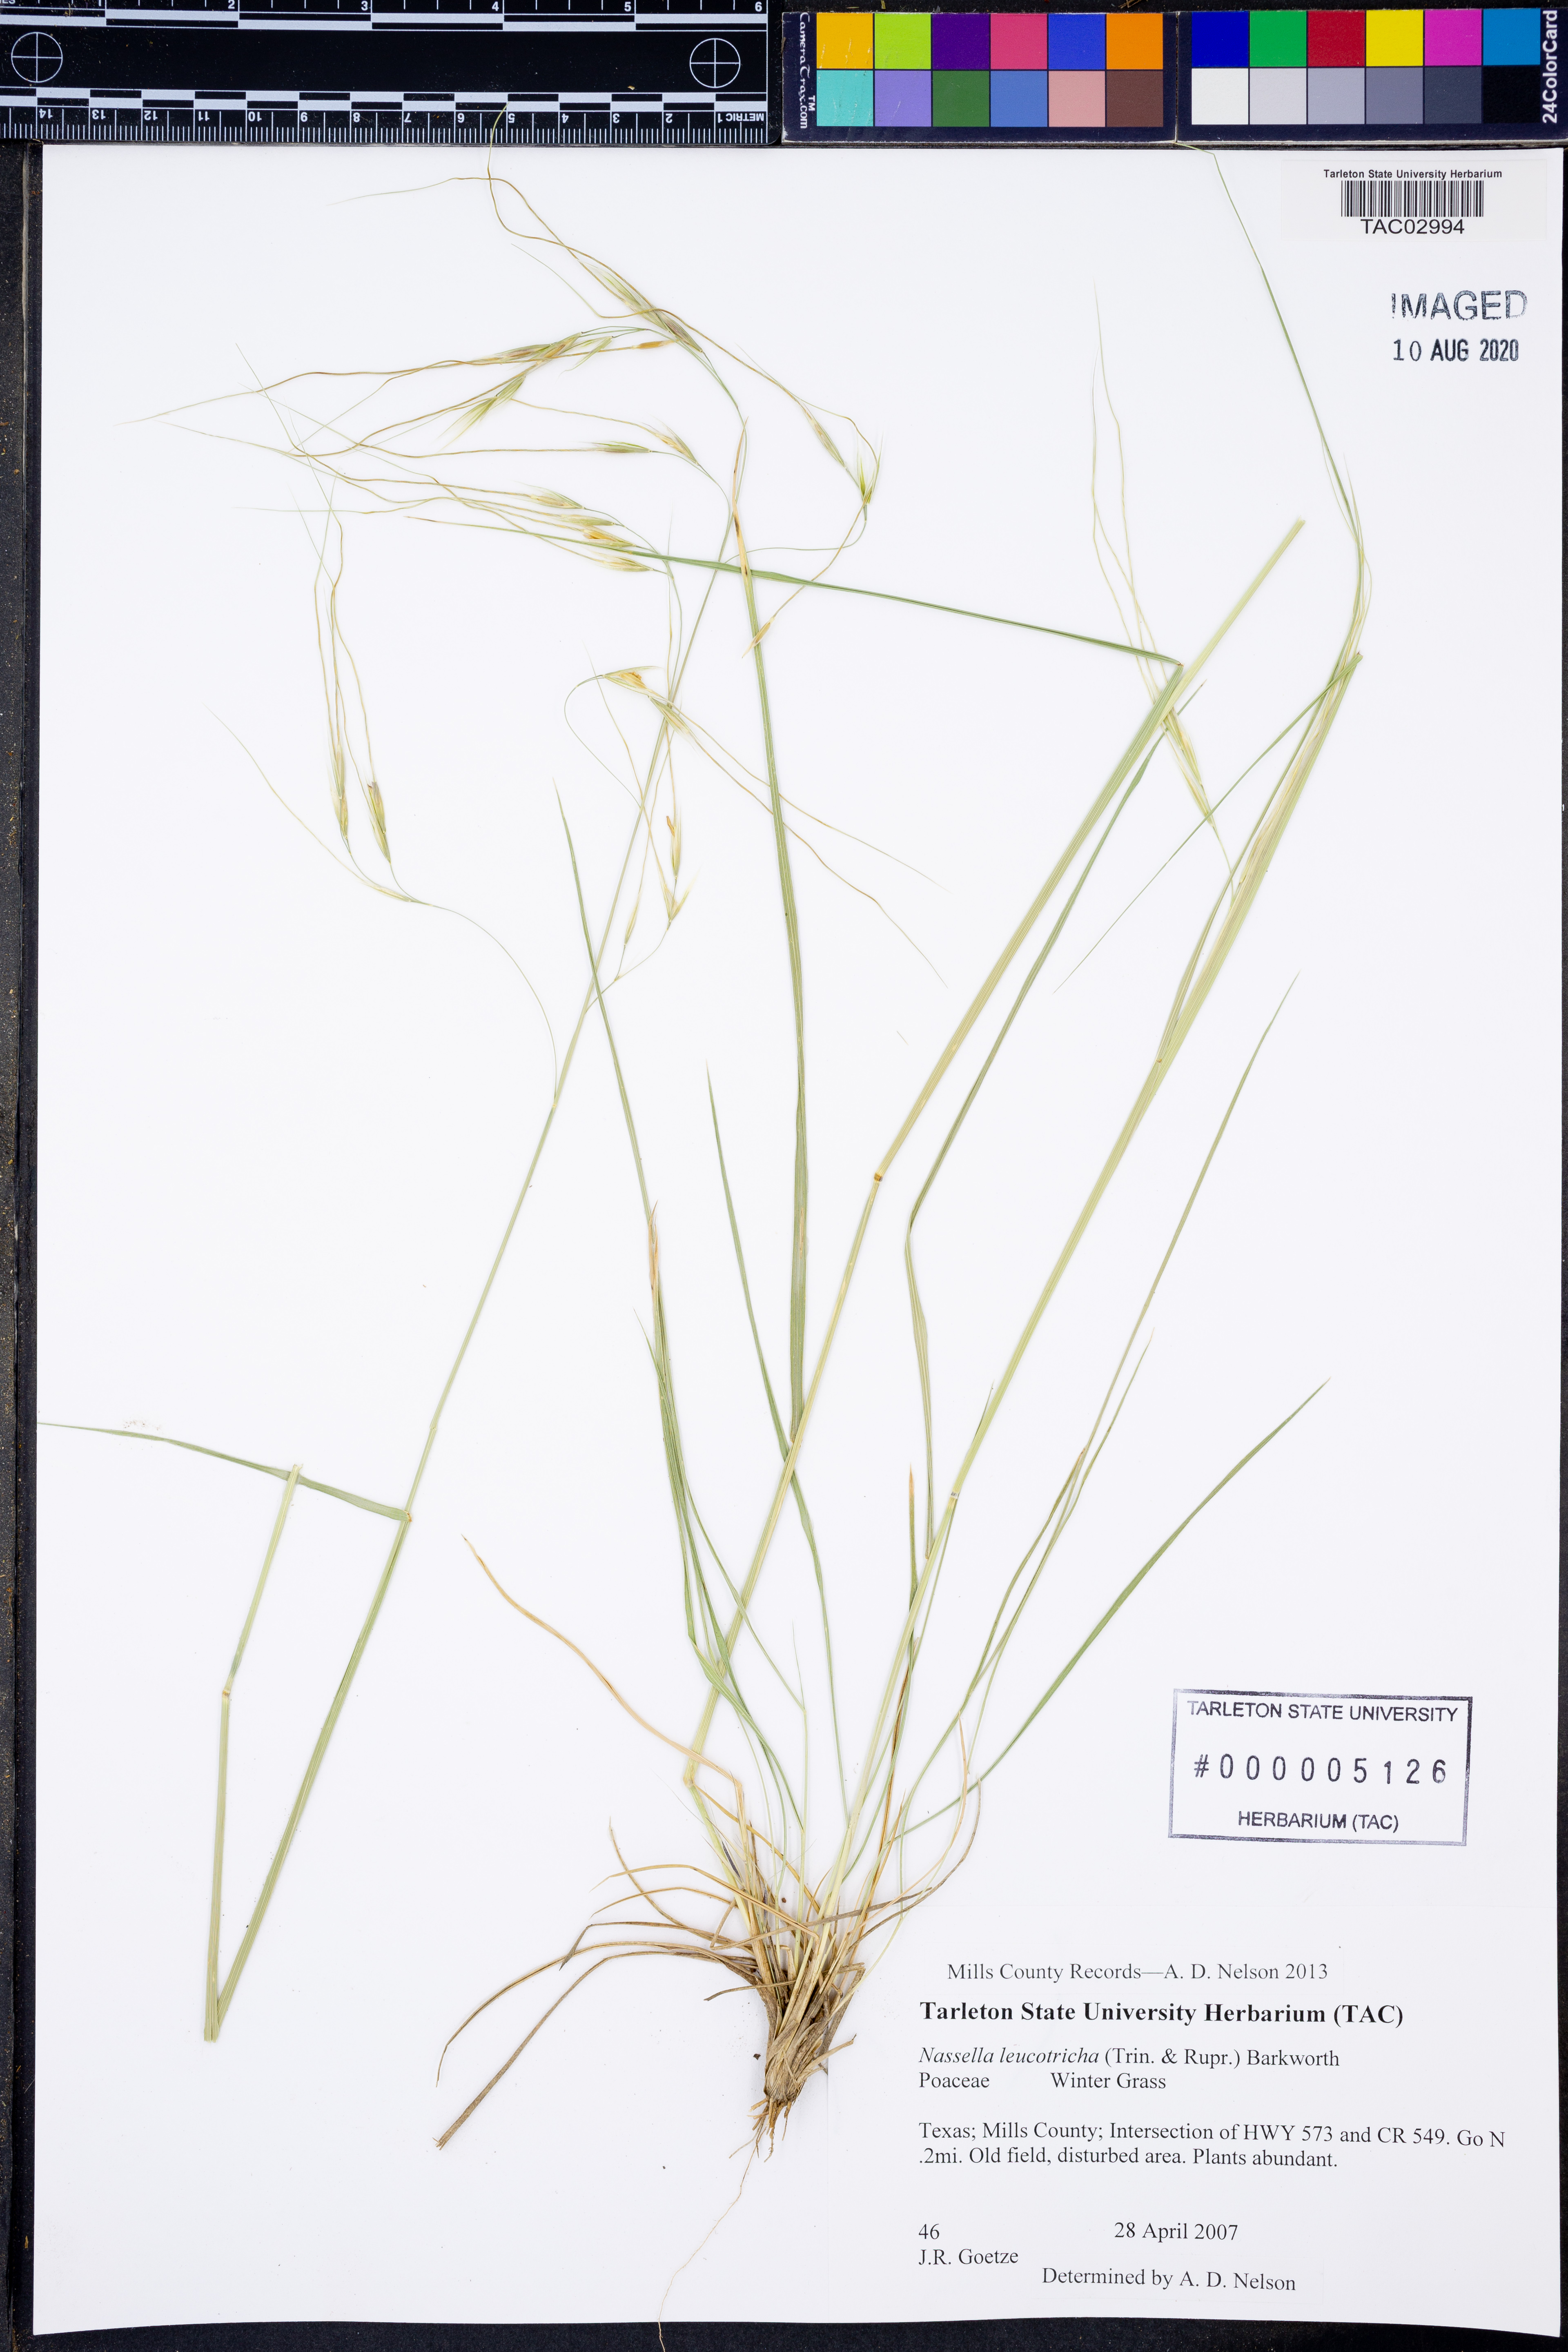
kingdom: Plantae
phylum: Tracheophyta
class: Liliopsida
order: Poales
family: Poaceae
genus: Nassella
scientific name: Nassella leucotricha
